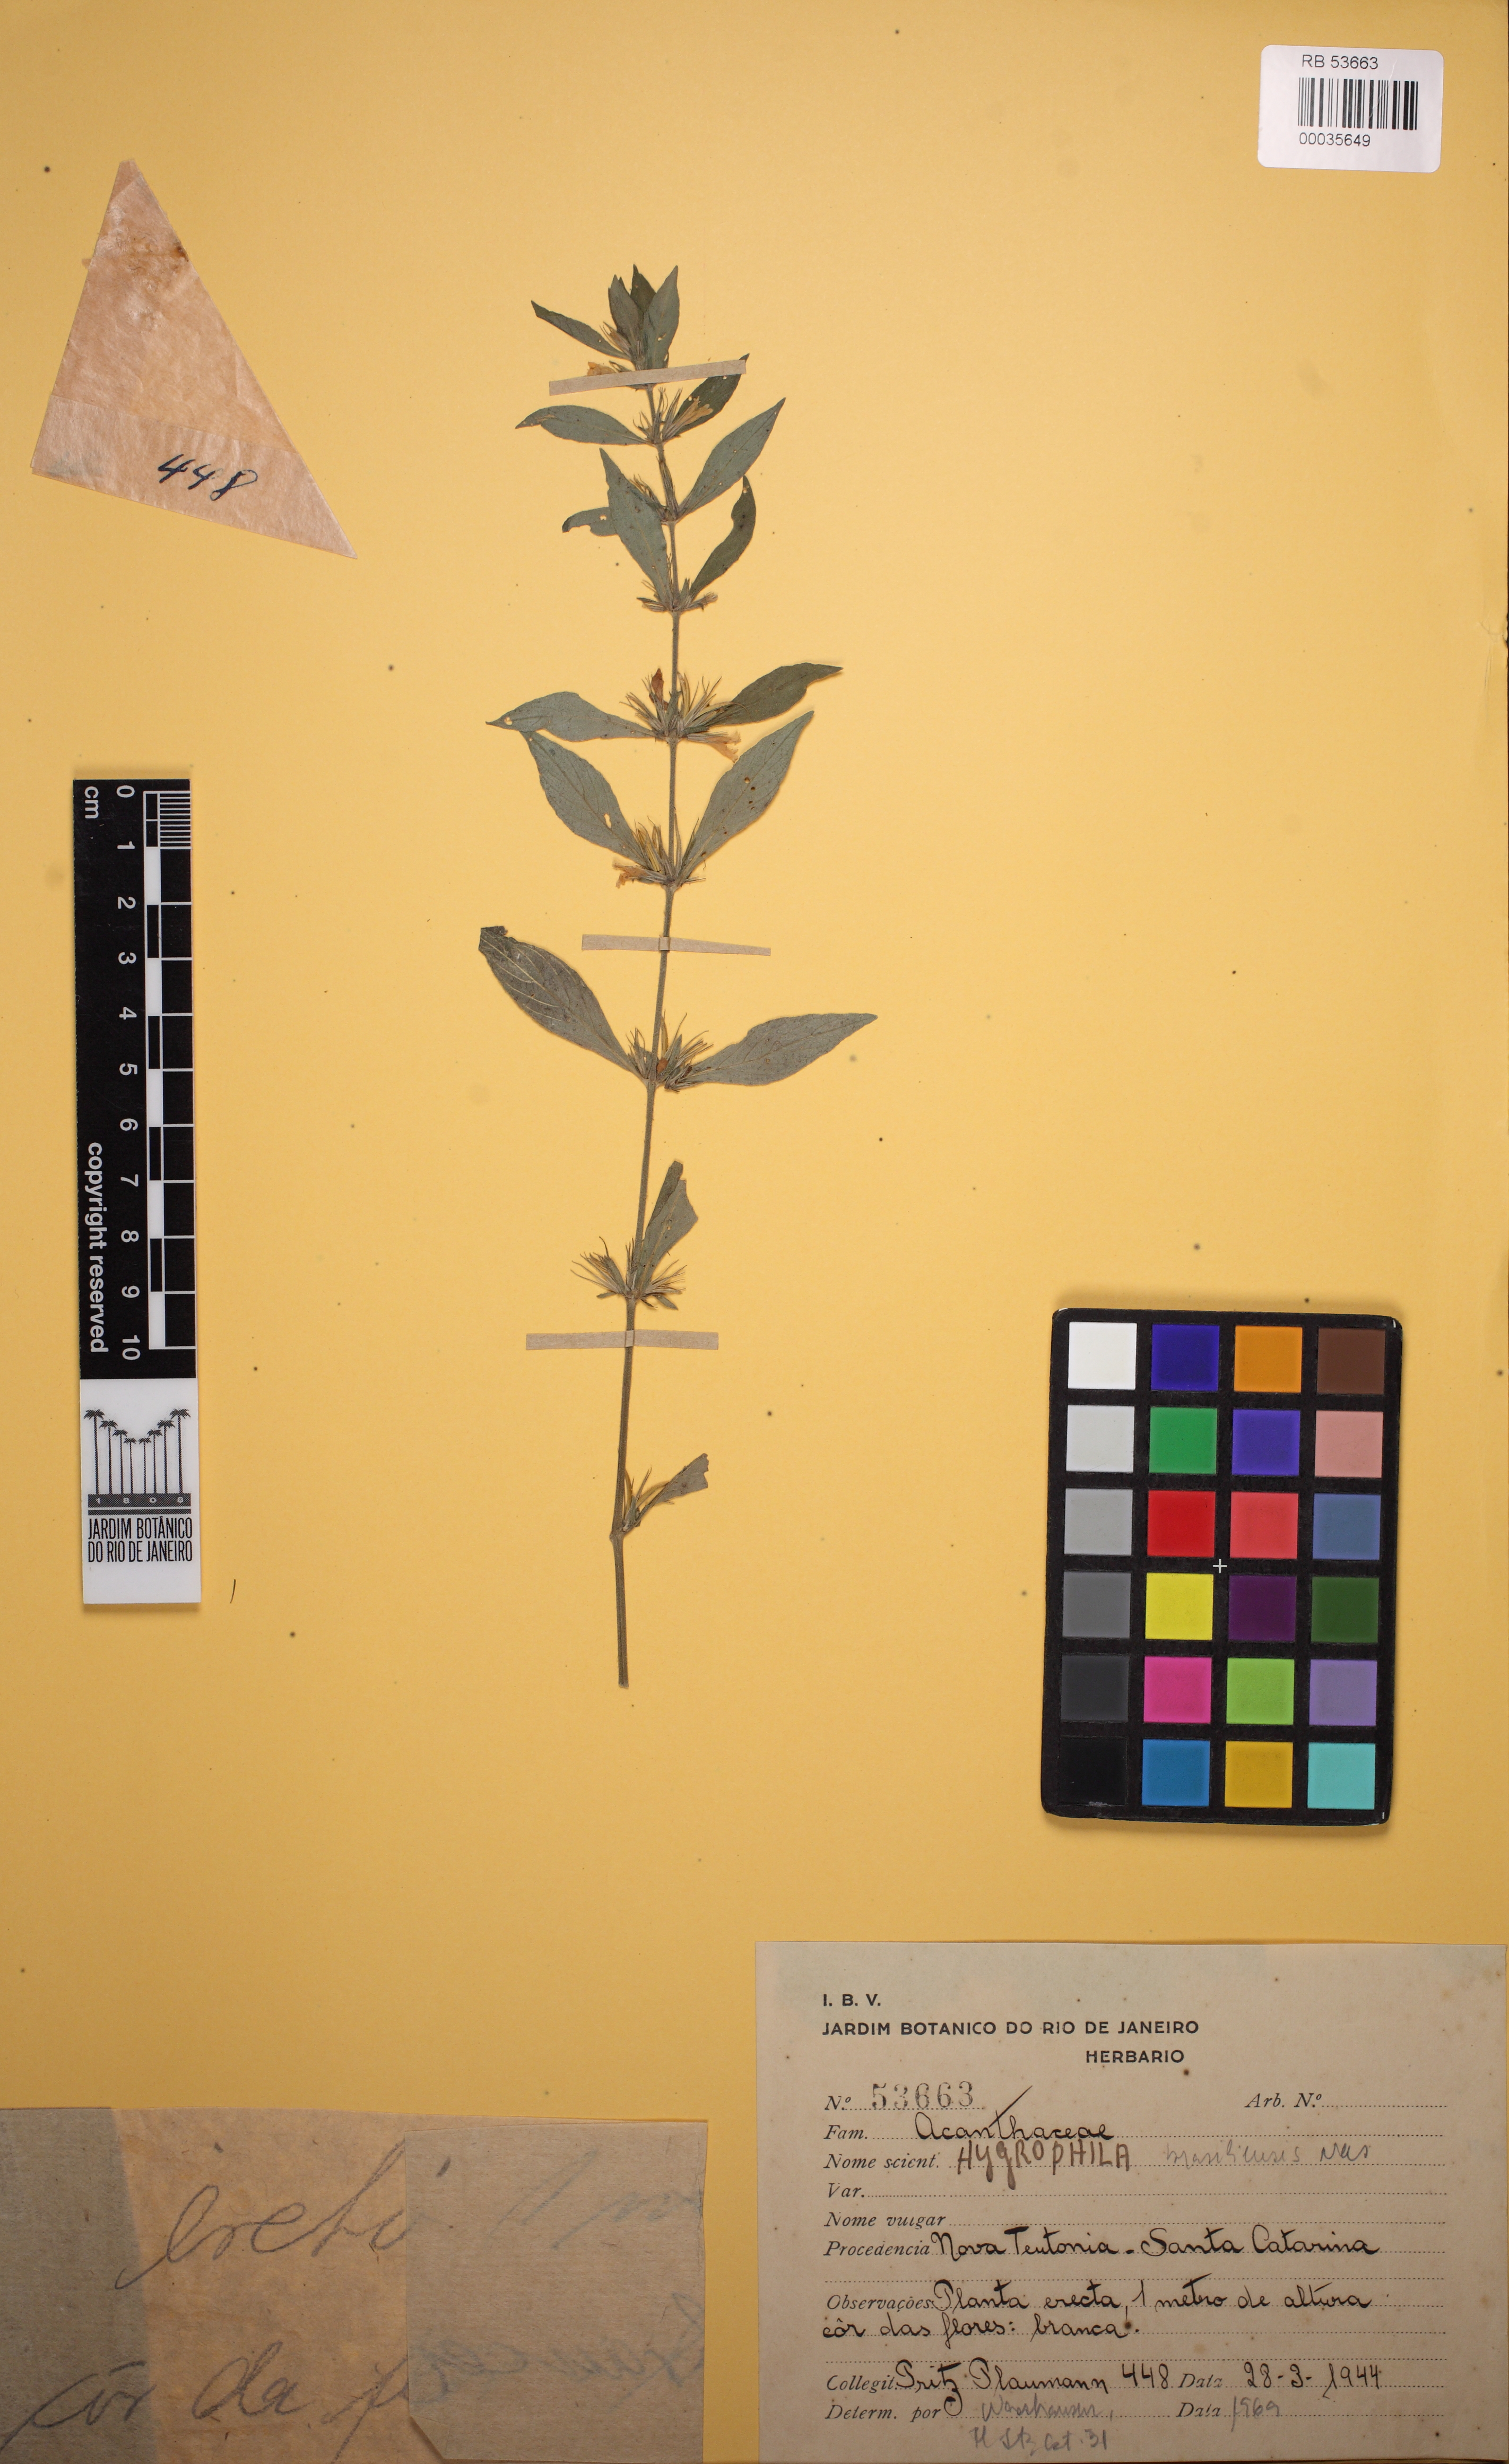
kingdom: Plantae
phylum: Tracheophyta
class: Magnoliopsida
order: Lamiales
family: Acanthaceae
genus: Hygrophila
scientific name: Hygrophila costata
